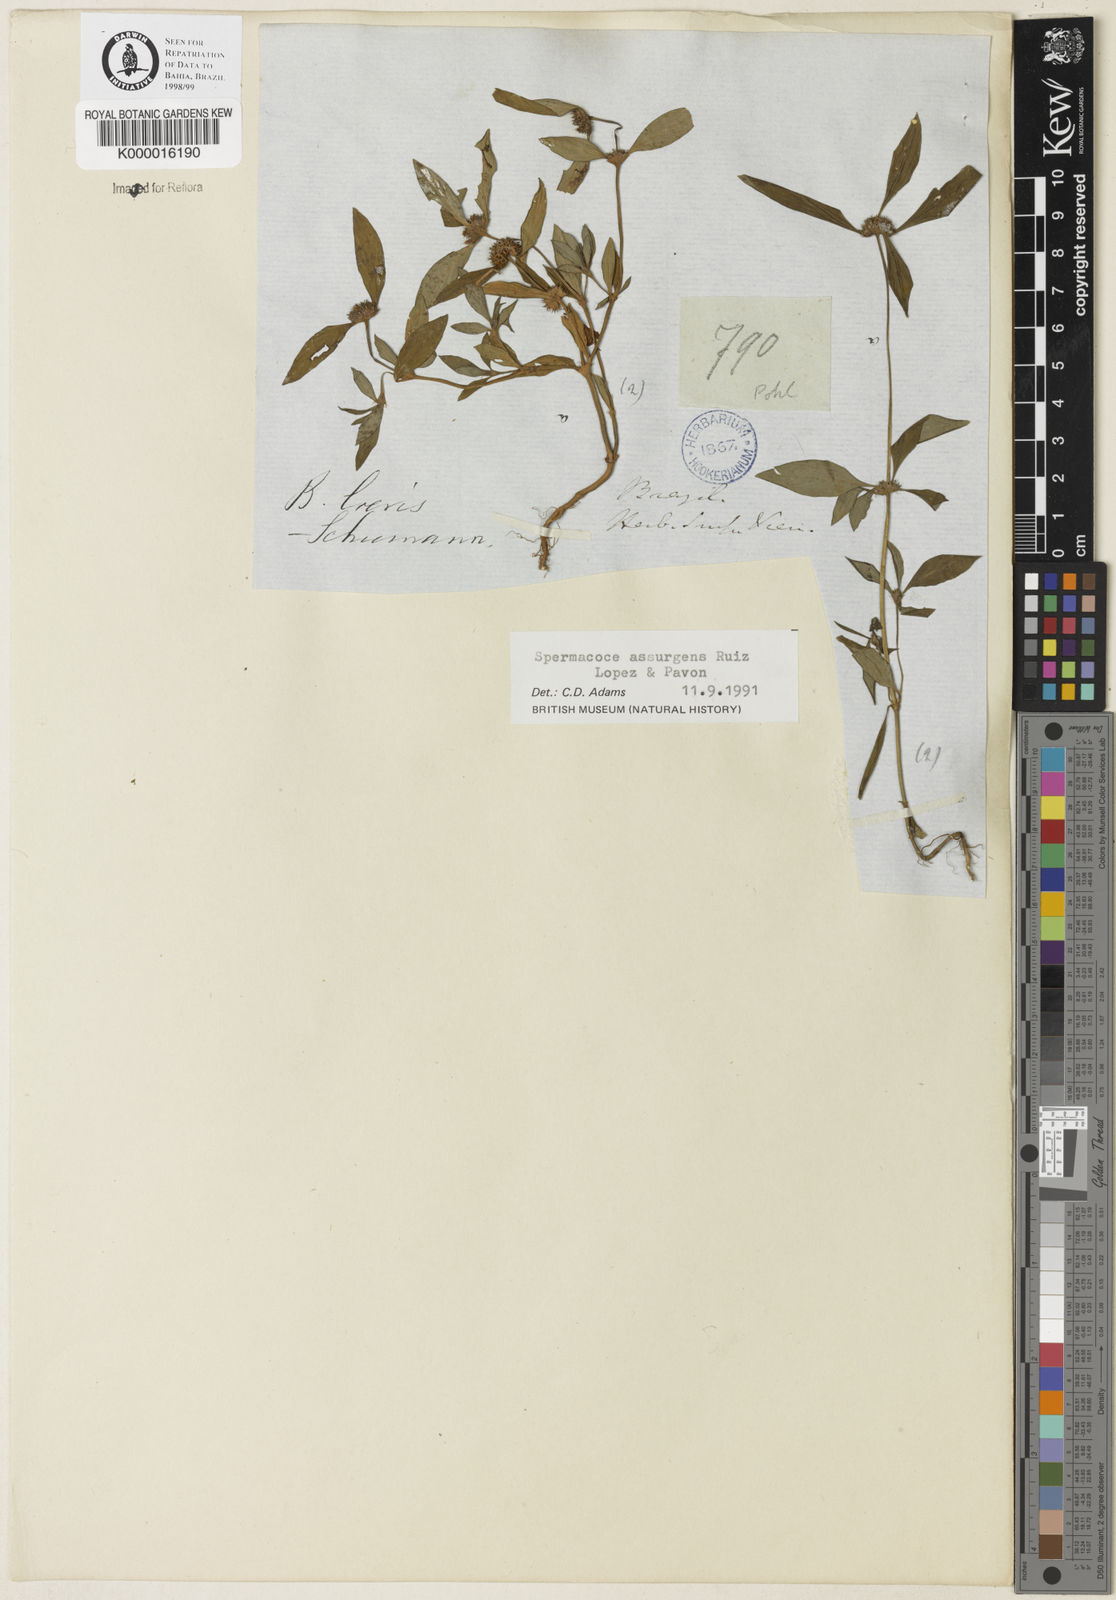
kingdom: Plantae
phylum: Tracheophyta
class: Magnoliopsida
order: Gentianales
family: Rubiaceae
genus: Spermacoce
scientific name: Spermacoce remota
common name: Woodland false buttonweed
